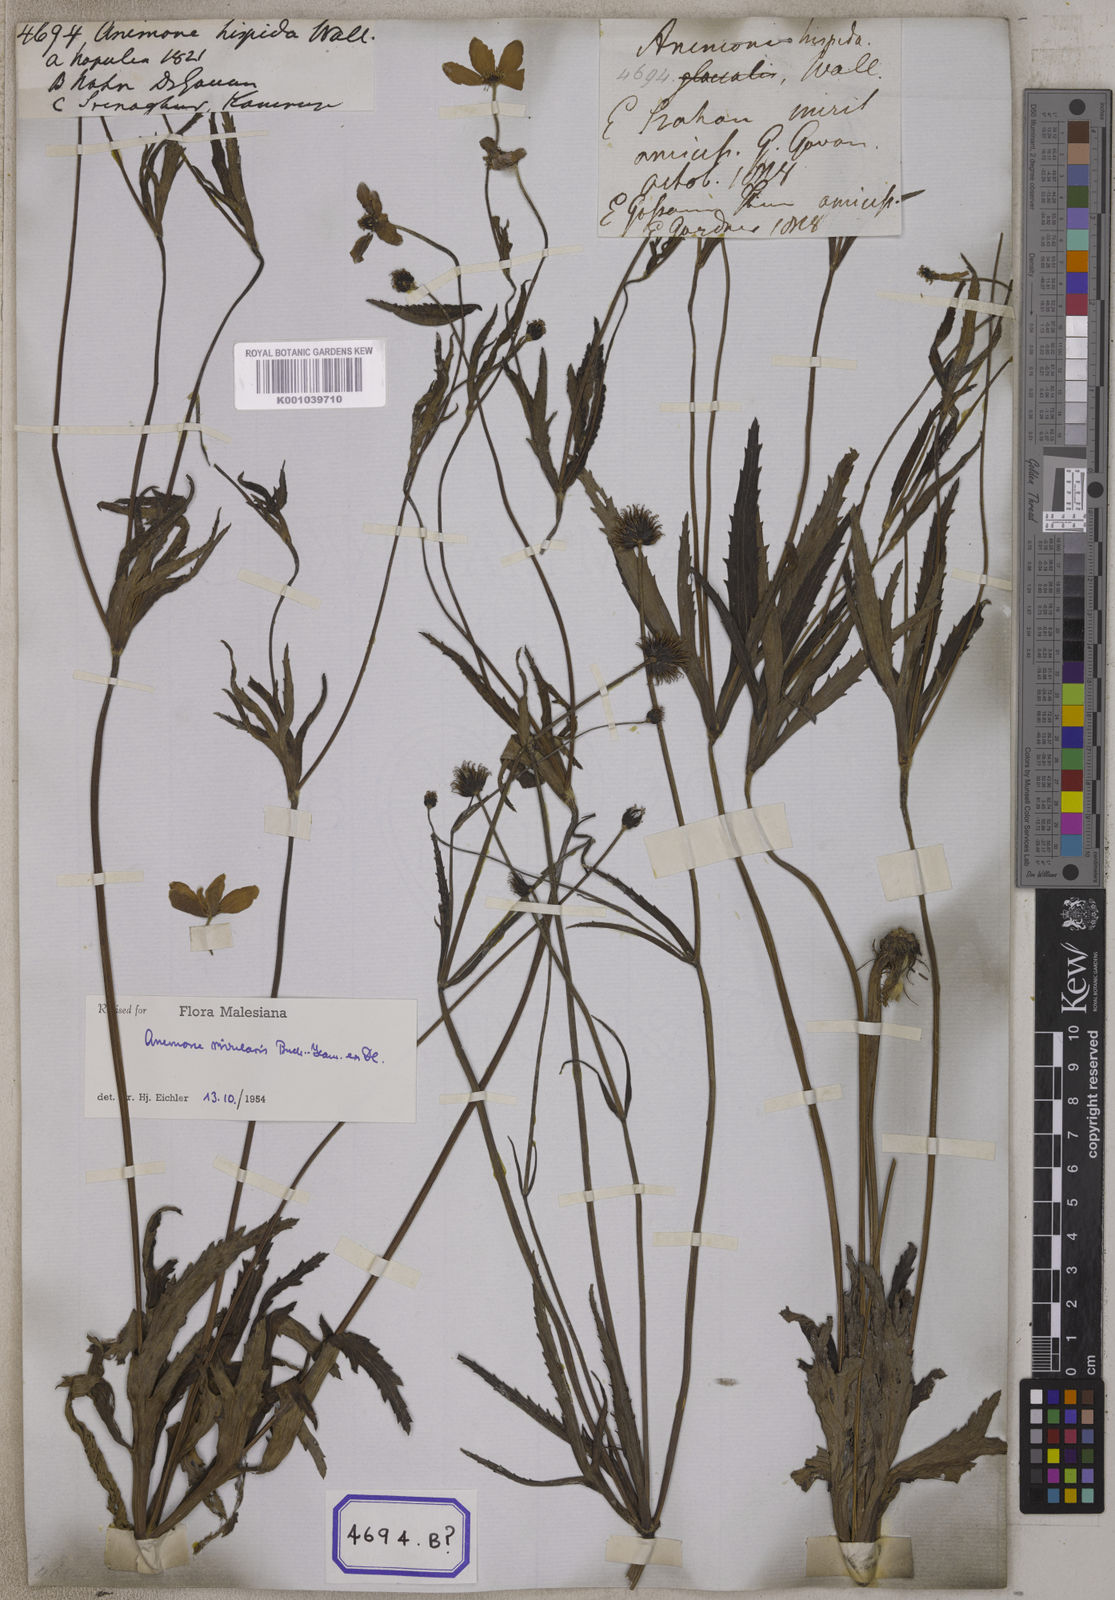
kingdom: Plantae
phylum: Tracheophyta
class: Magnoliopsida
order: Ranunculales
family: Ranunculaceae
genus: Eriocapitella
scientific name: Eriocapitella rivularis
